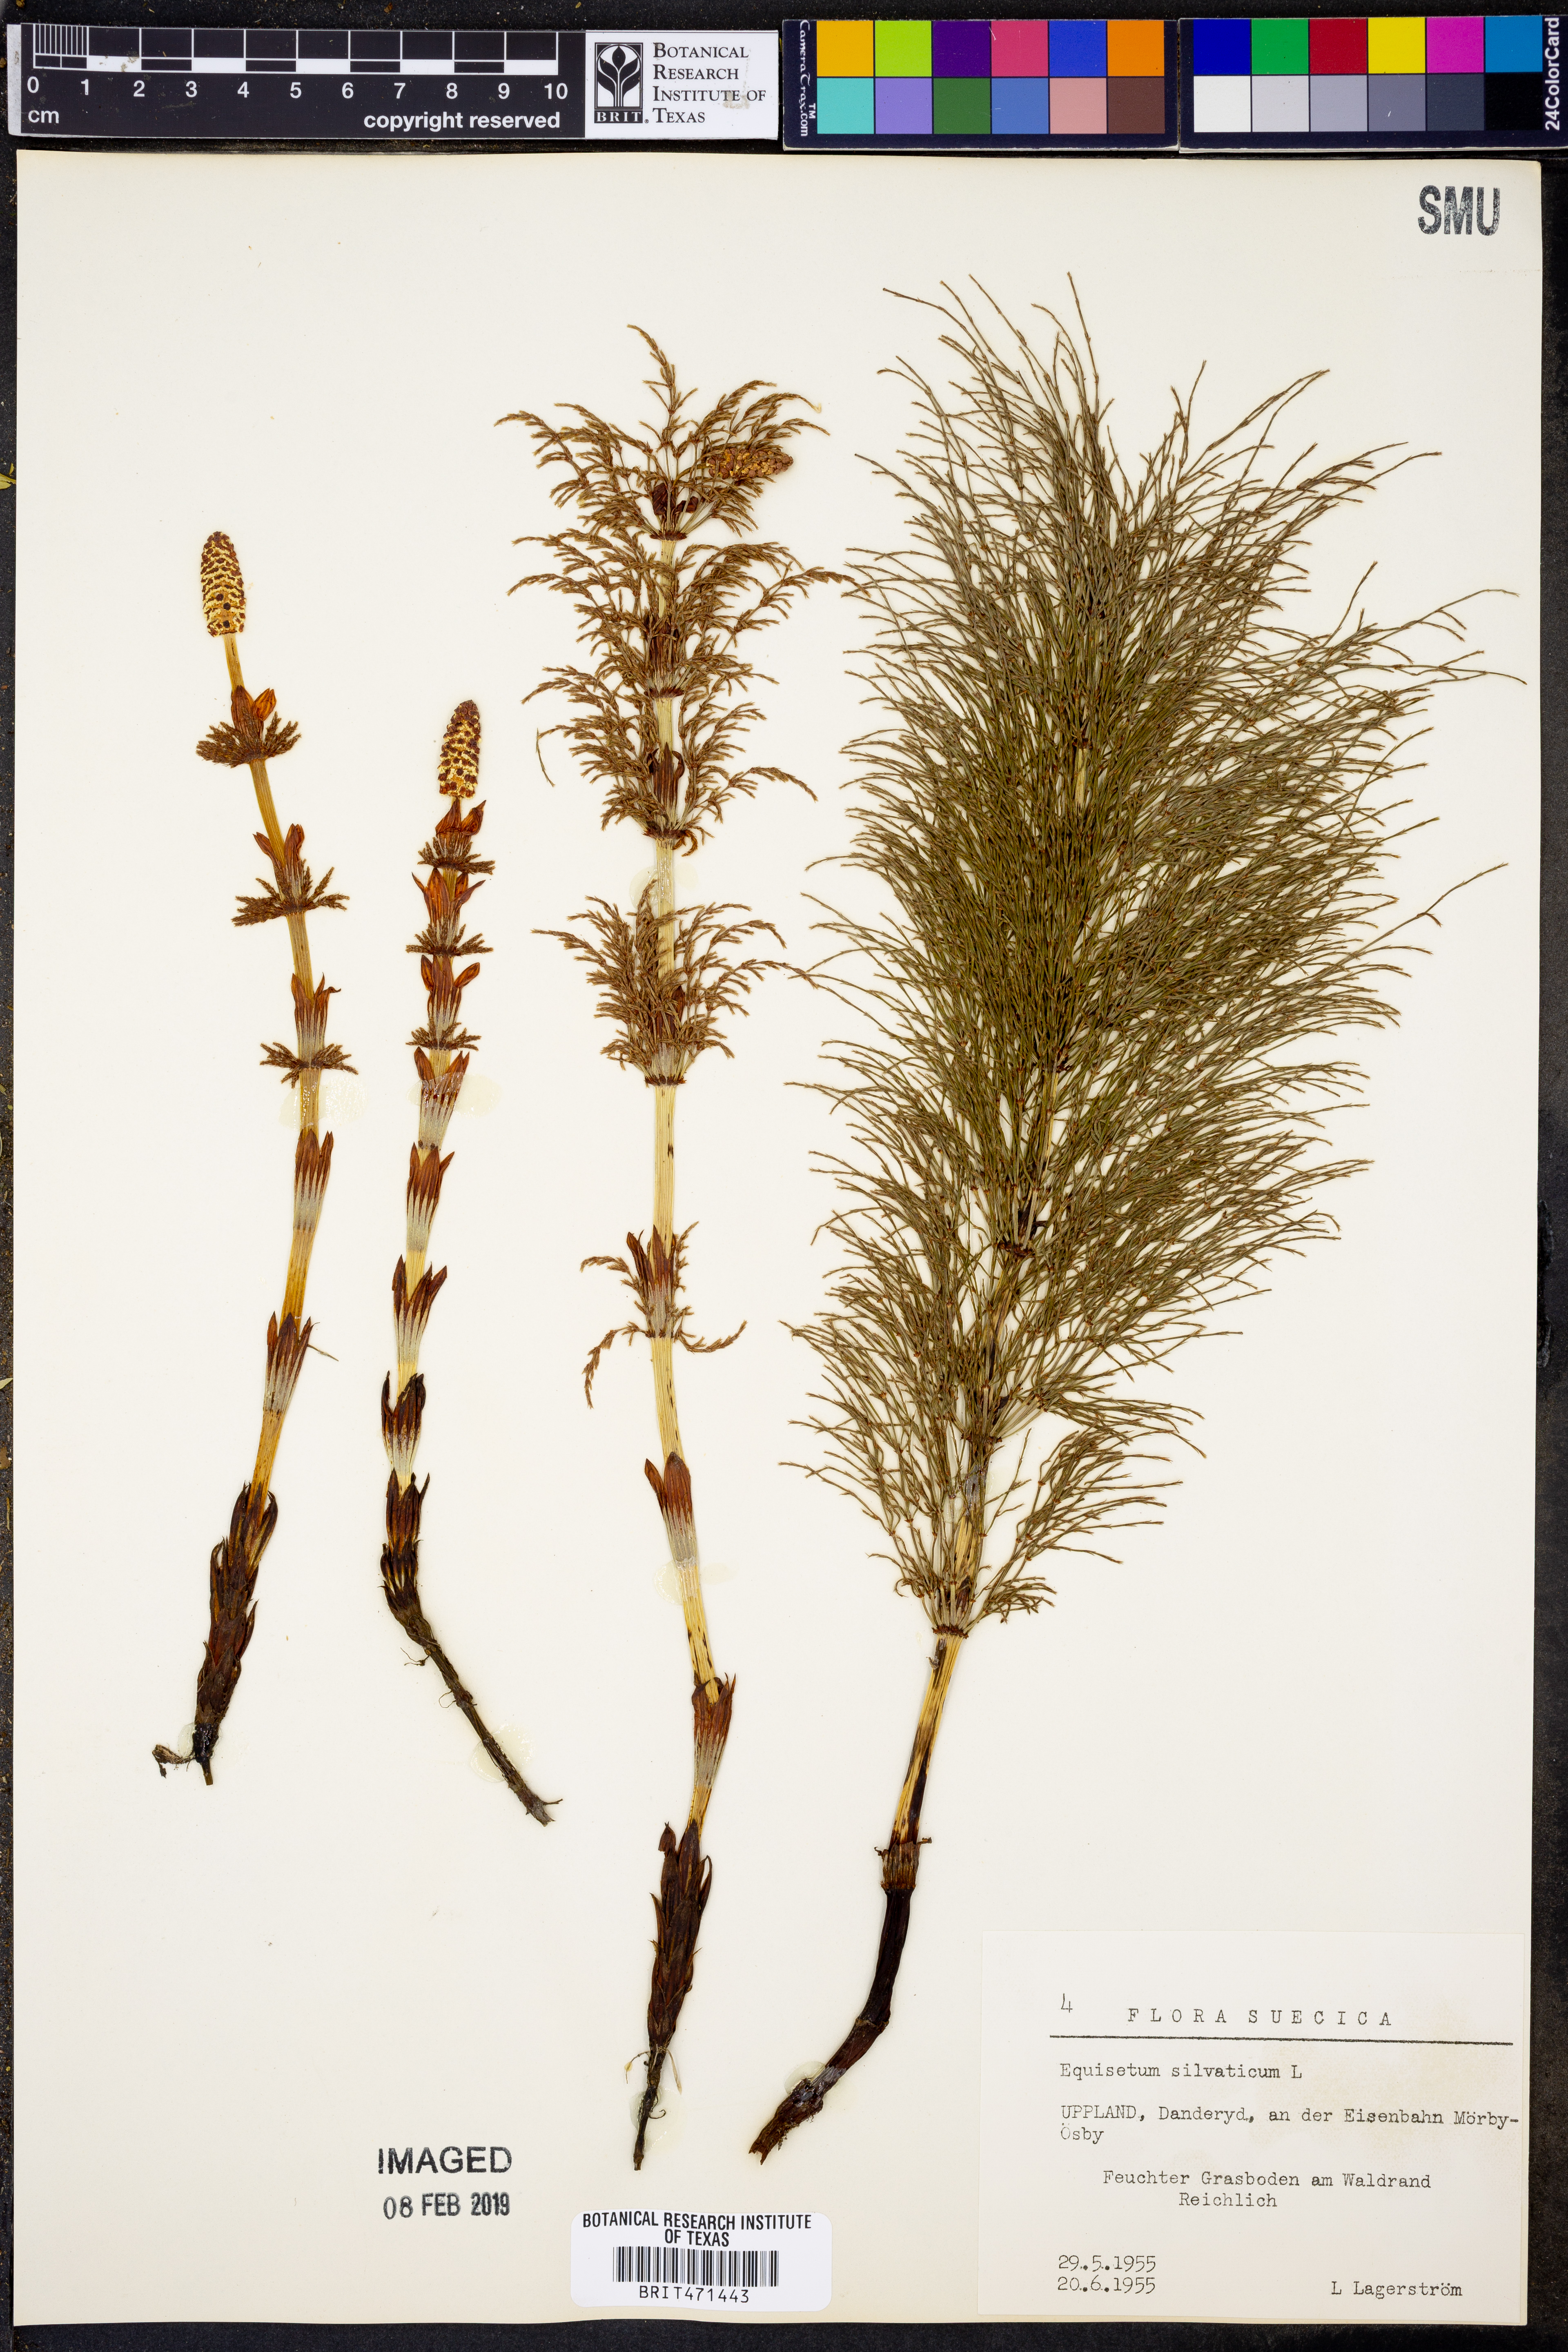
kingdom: Plantae
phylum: Tracheophyta
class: Polypodiopsida
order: Equisetales
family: Equisetaceae
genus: Equisetum
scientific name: Equisetum sylvaticum
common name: Wood horsetail
